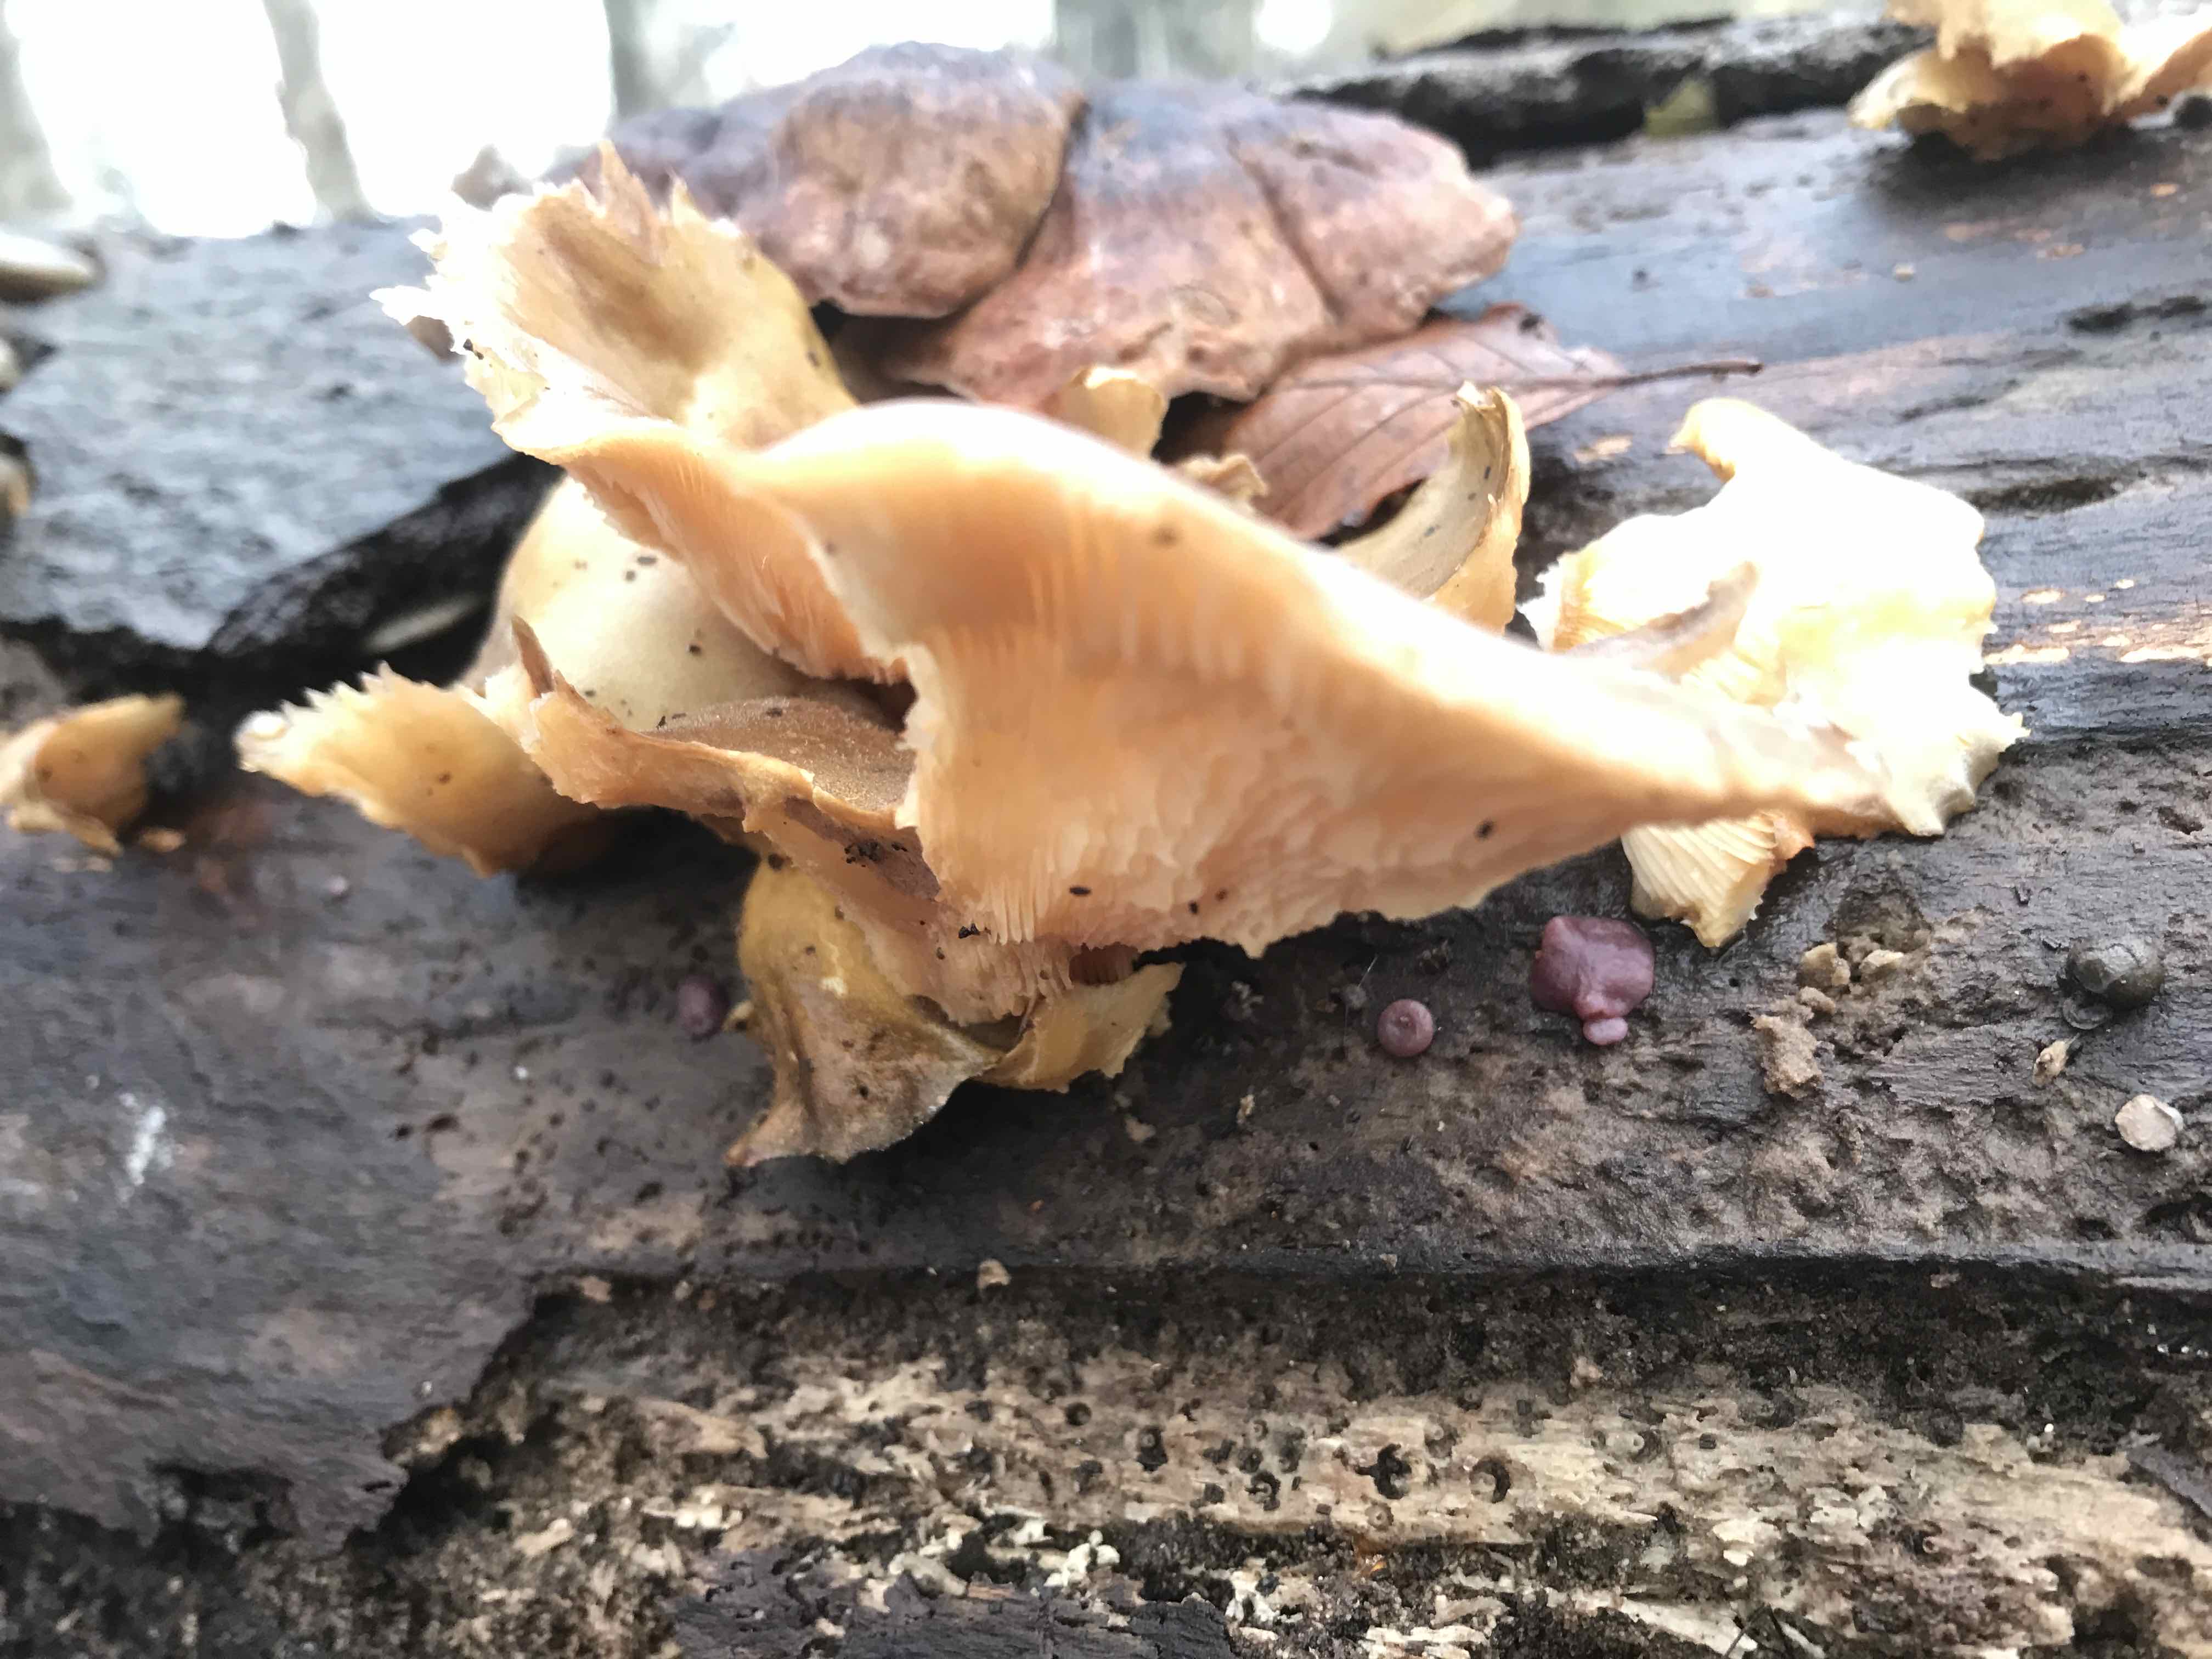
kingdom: Fungi
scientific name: Fungi
